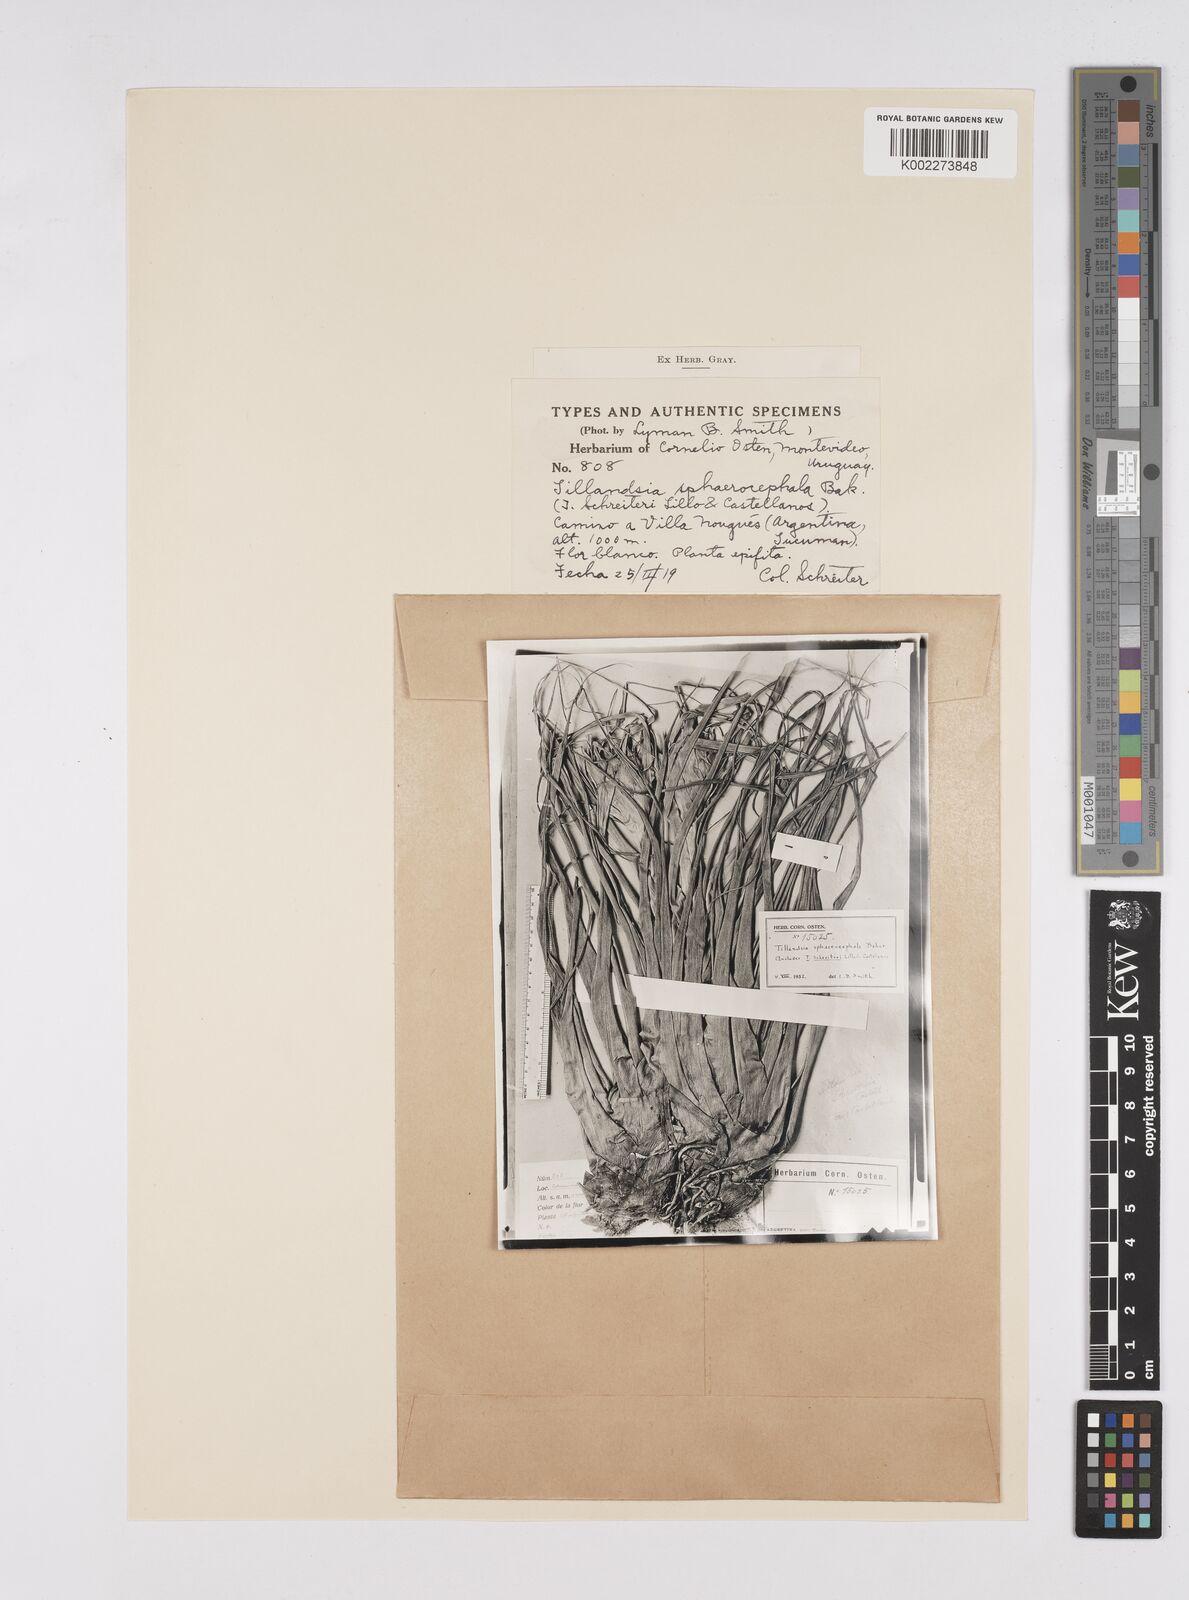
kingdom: Plantae
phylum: Tracheophyta
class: Liliopsida
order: Poales
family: Bromeliaceae
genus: Tillandsia
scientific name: Tillandsia sphaerocephala
